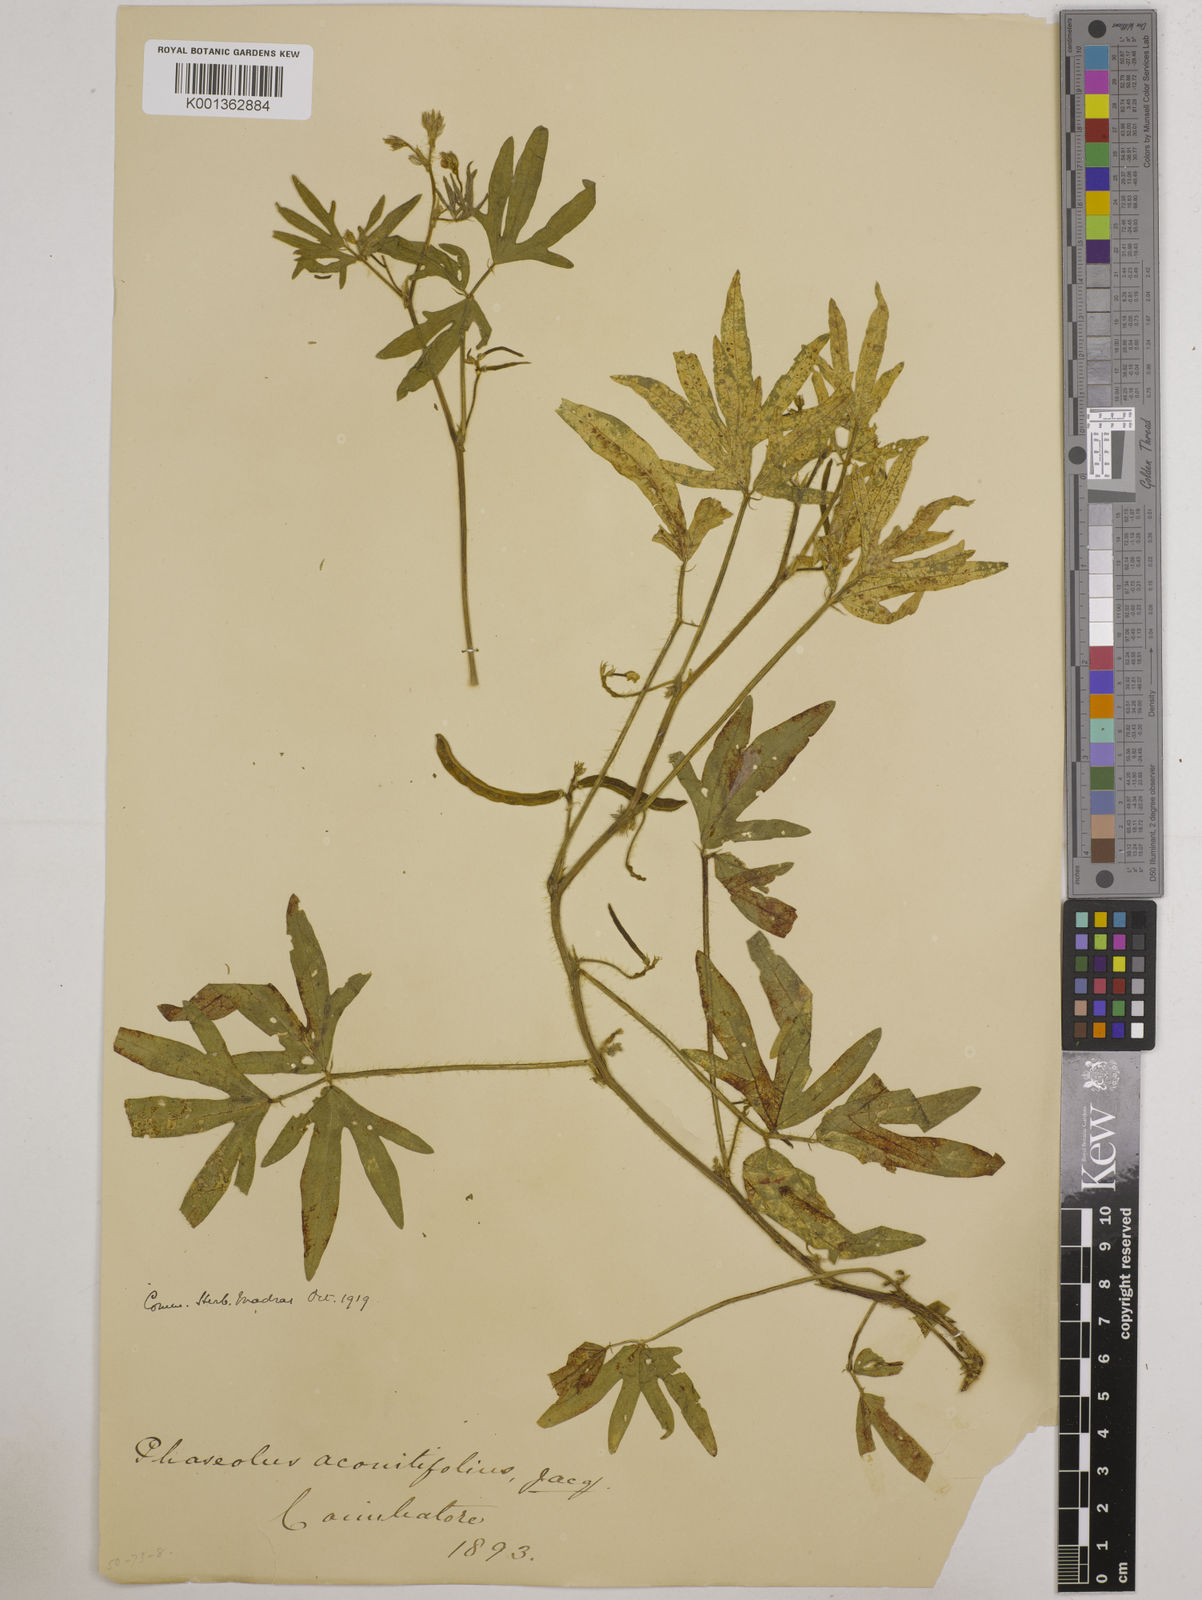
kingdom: Plantae
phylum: Tracheophyta
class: Magnoliopsida
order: Fabales
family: Fabaceae
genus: Vigna
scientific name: Vigna aconitifolia
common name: Dew bean
